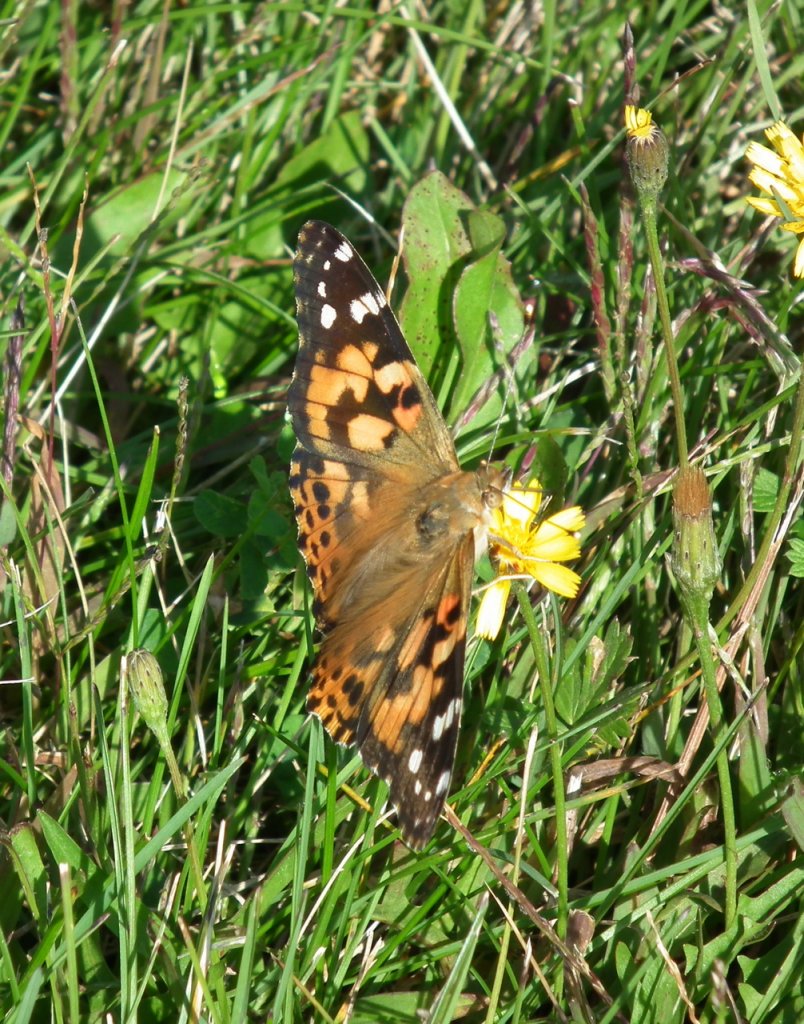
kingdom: Animalia
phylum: Arthropoda
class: Insecta
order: Lepidoptera
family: Nymphalidae
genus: Vanessa
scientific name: Vanessa cardui
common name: Painted Lady
